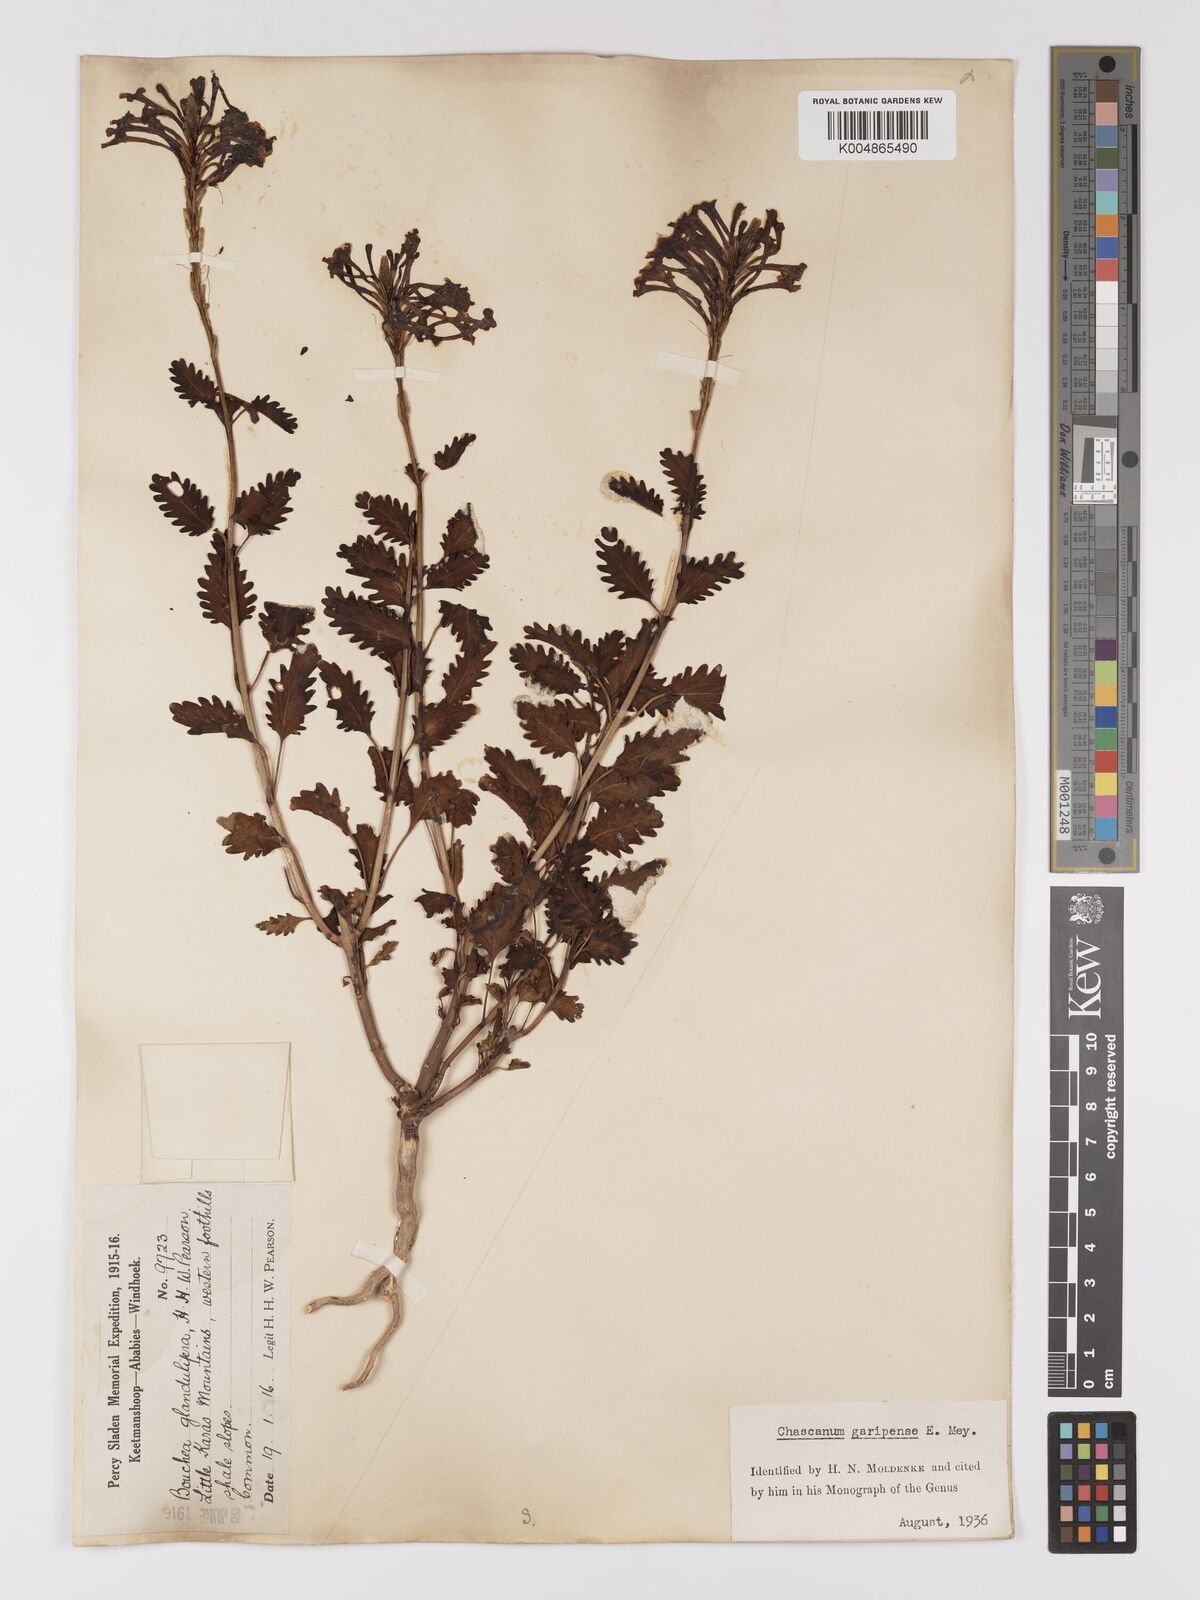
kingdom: Plantae
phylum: Tracheophyta
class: Magnoliopsida
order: Lamiales
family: Verbenaceae
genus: Chascanum
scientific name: Chascanum garipense
